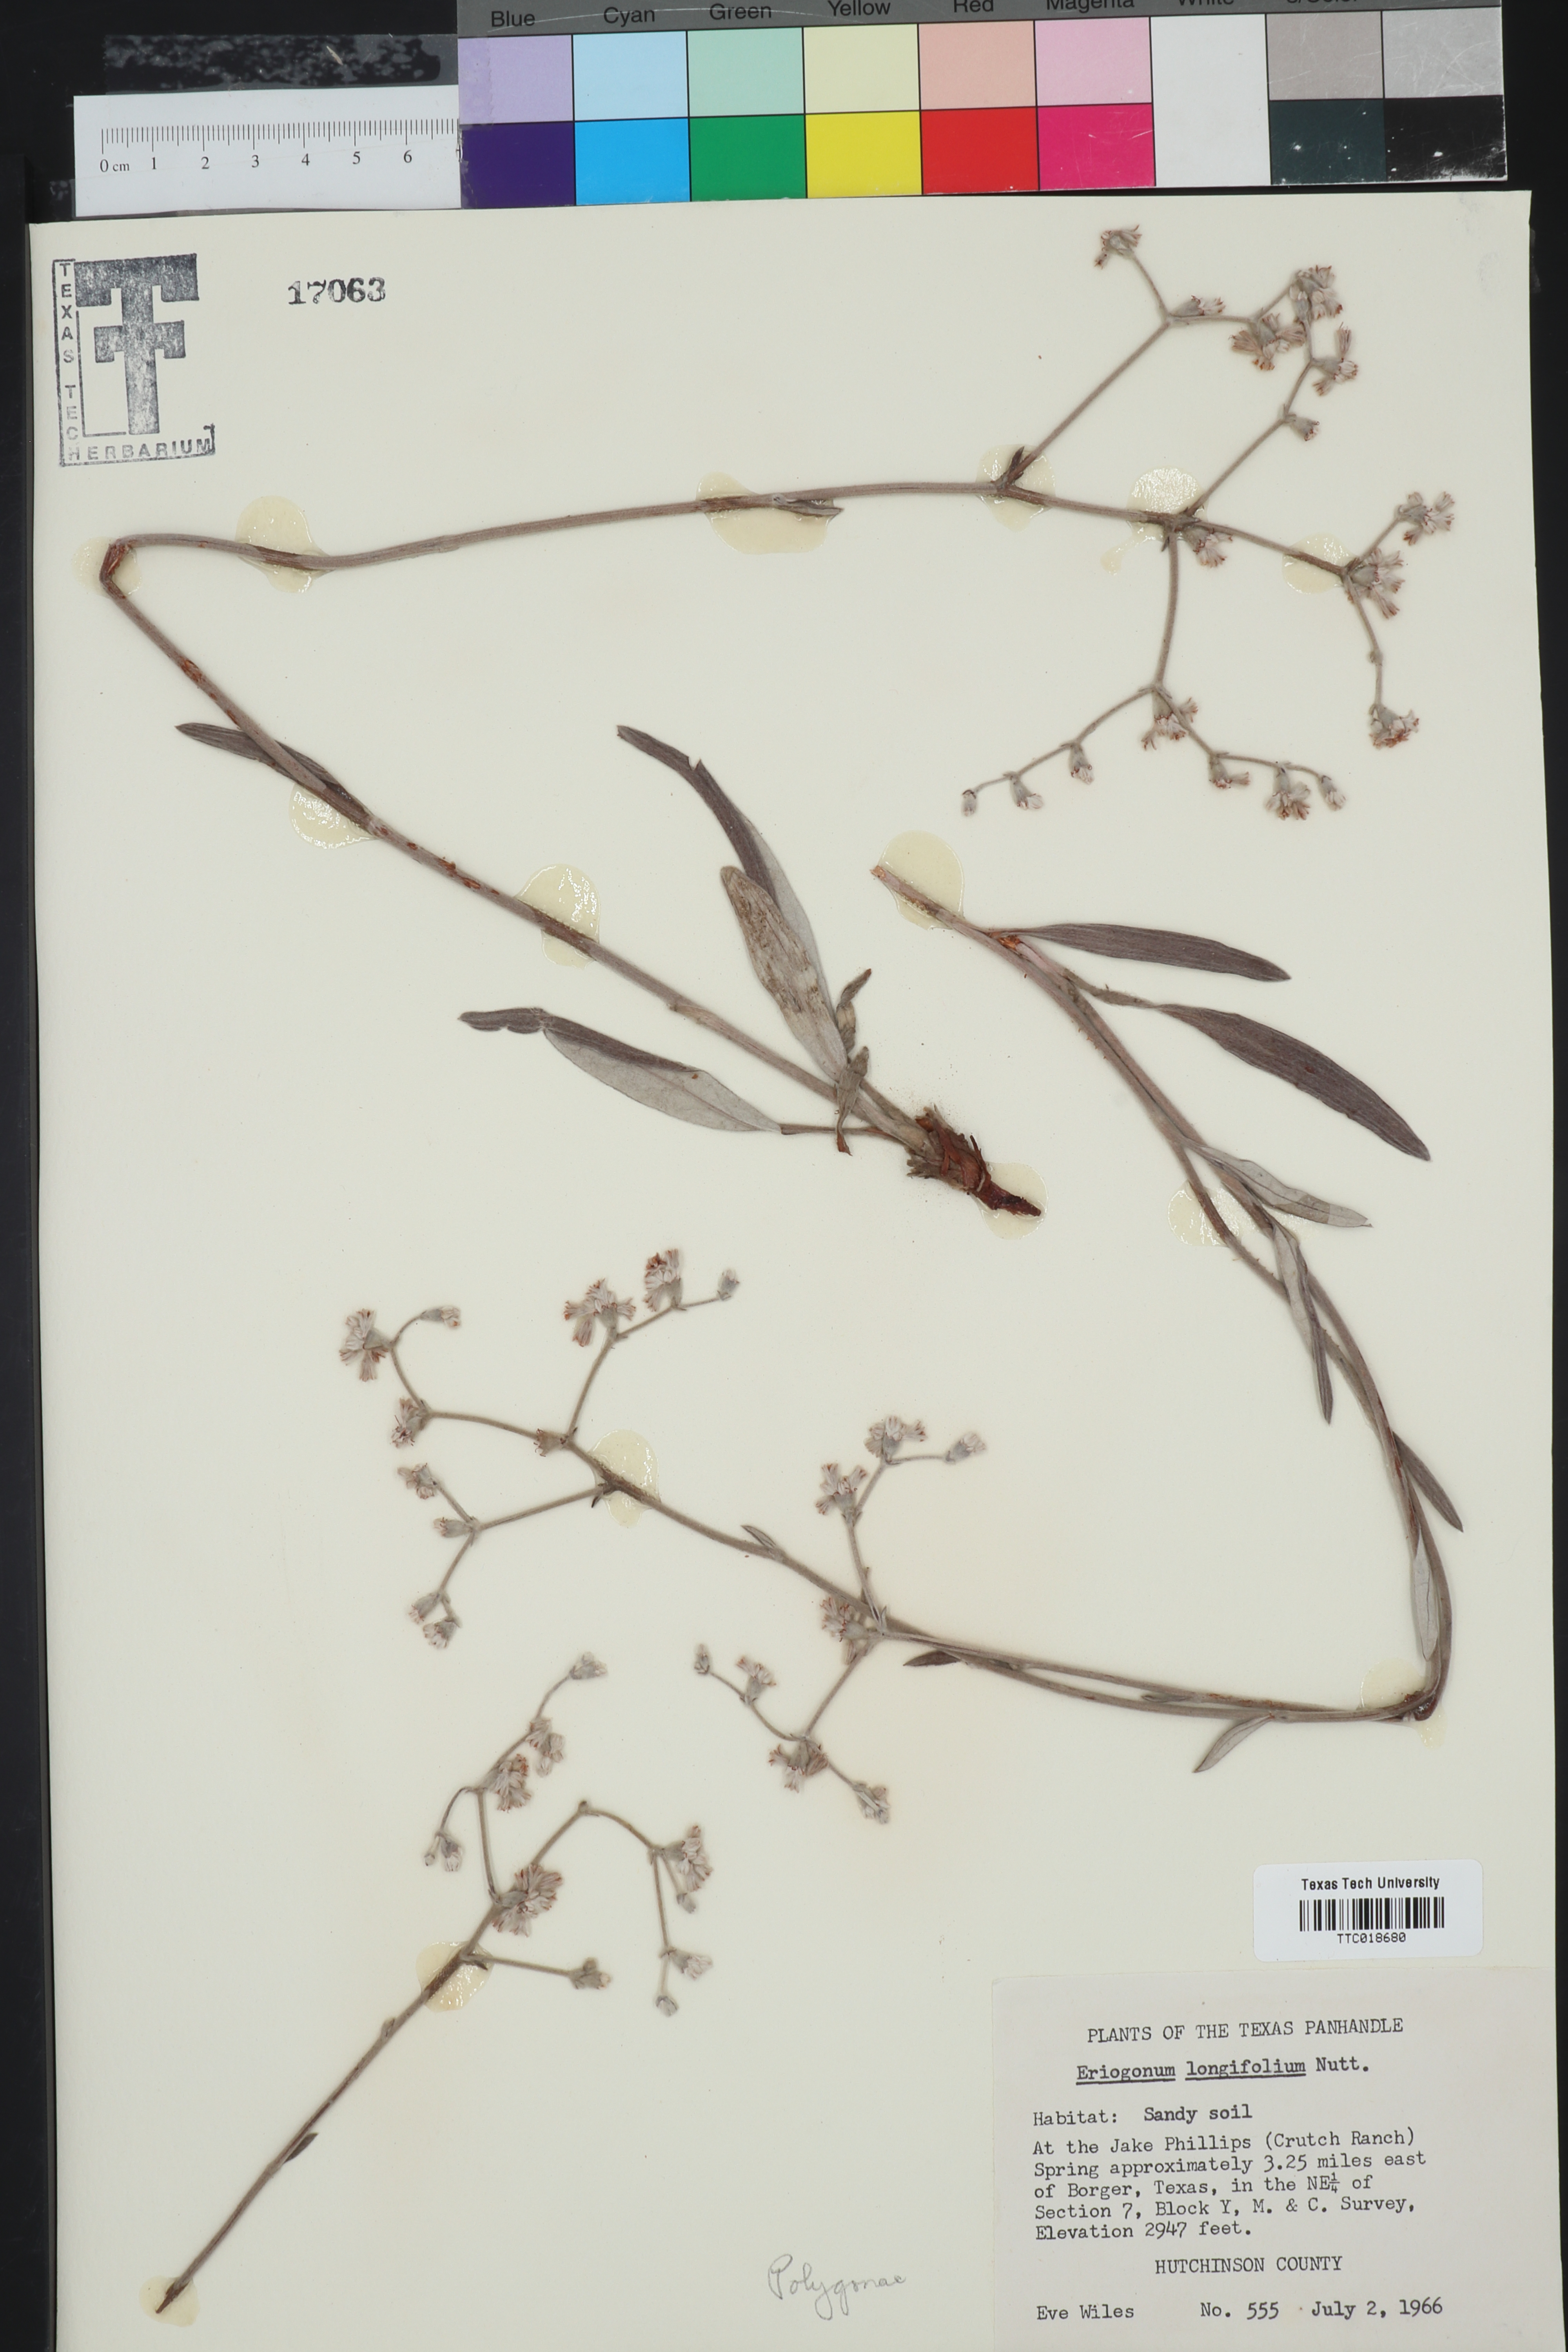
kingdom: Plantae
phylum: Tracheophyta
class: Magnoliopsida
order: Caryophyllales
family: Polygonaceae
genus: Eriogonum
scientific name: Eriogonum longifolium
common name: Longleaf wild buckwheat
